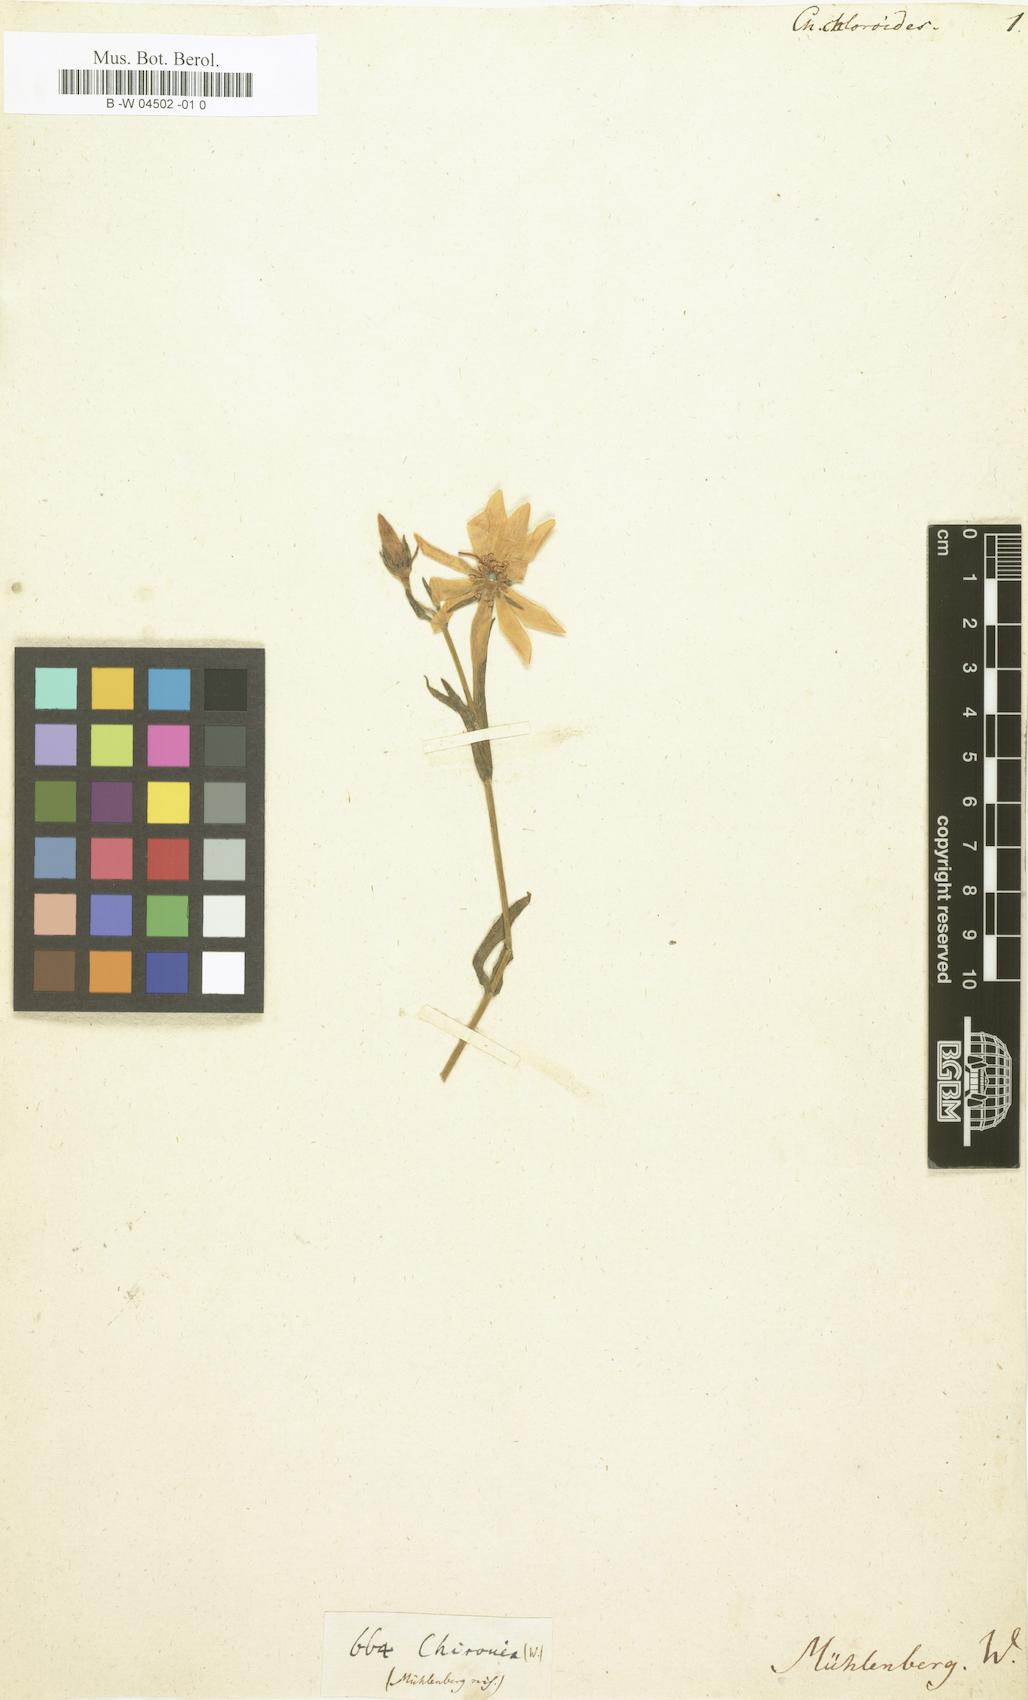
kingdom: Plantae
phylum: Tracheophyta
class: Magnoliopsida
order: Gentianales
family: Gentianaceae
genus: Sabatia
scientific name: Sabatia dodecandra
